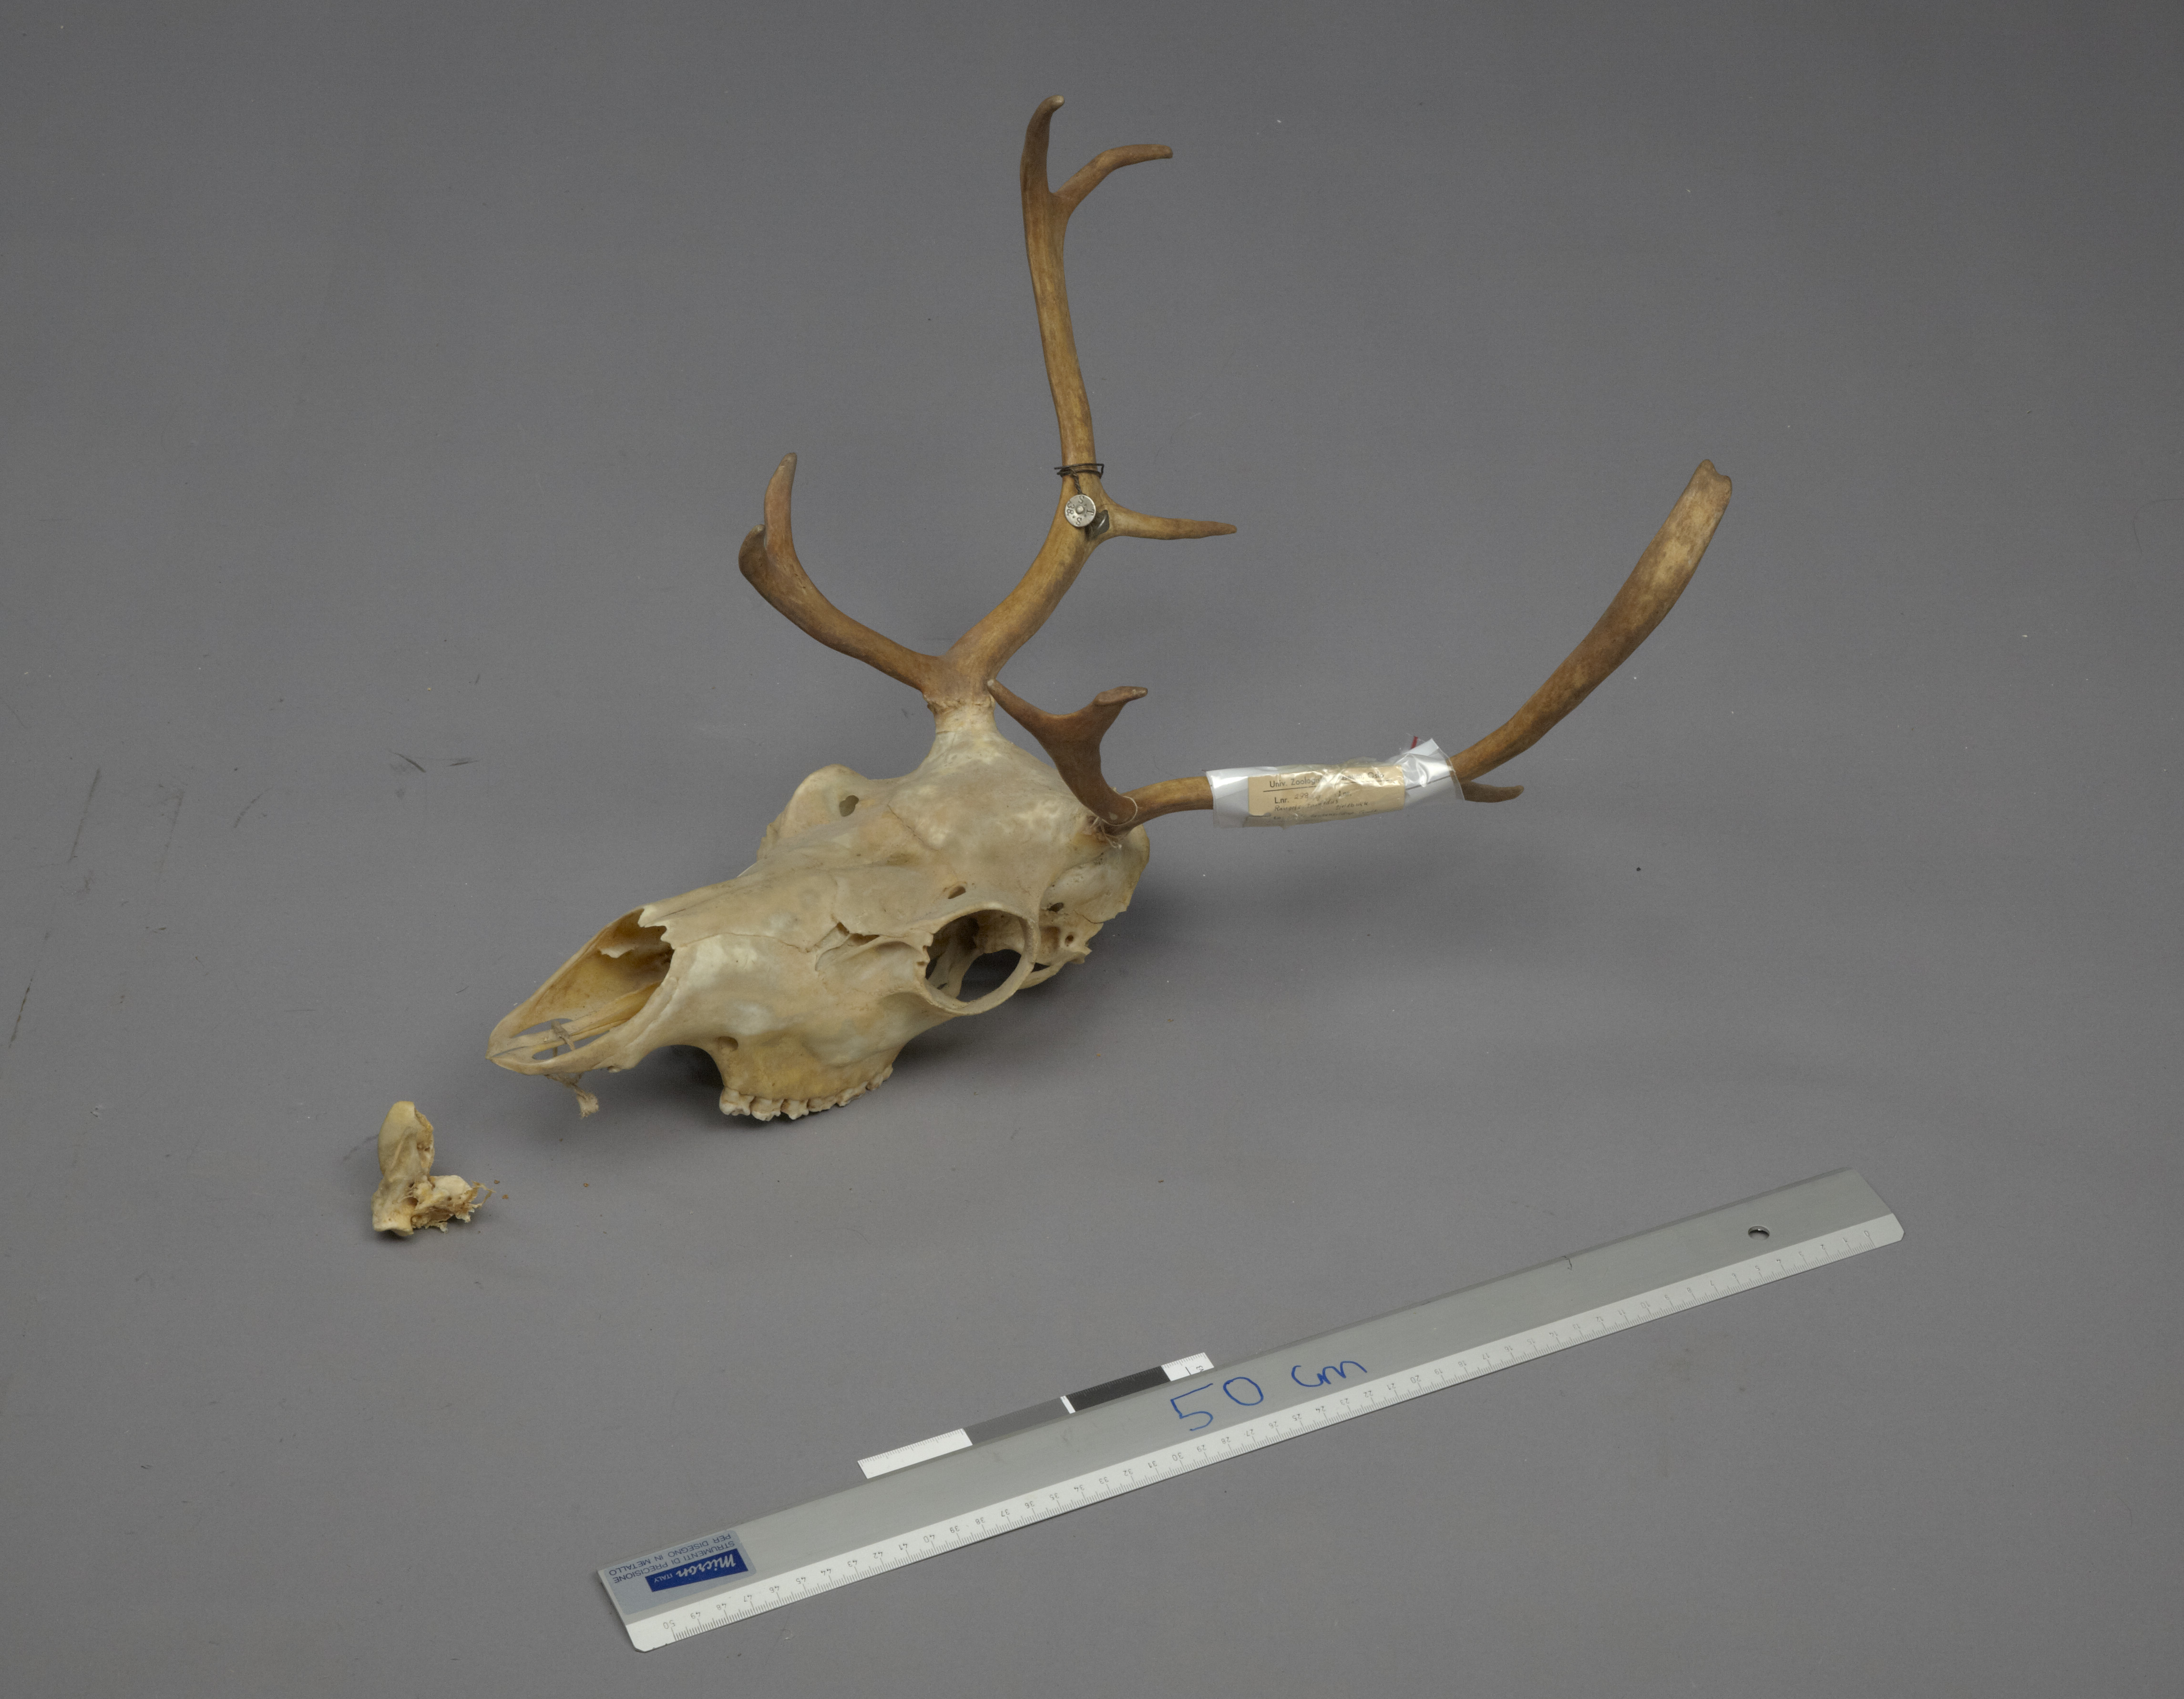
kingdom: Animalia
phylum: Chordata
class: Mammalia
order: Artiodactyla
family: Cervidae
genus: Rangifer
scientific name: Rangifer tarandus
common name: Reindeer
